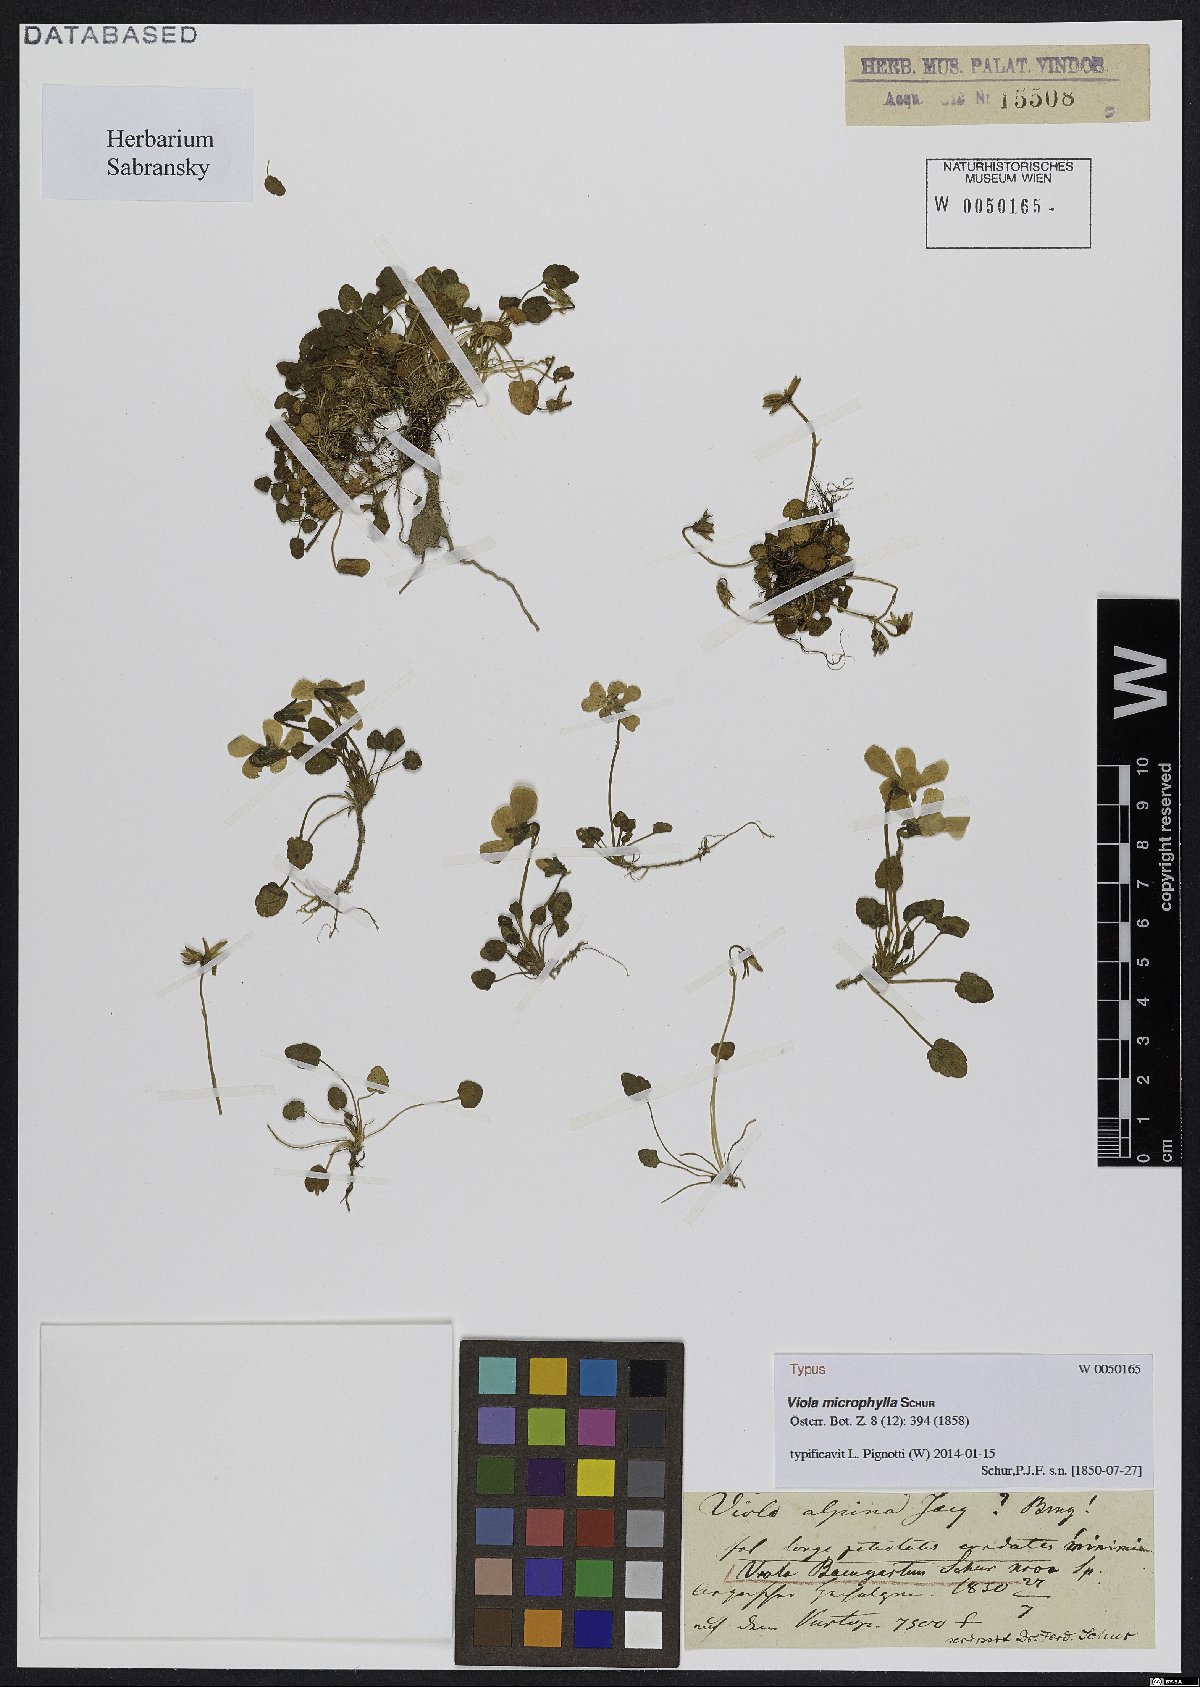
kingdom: Plantae
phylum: Tracheophyta
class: Magnoliopsida
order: Malpighiales
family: Violaceae
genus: Viola
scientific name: Viola alpina
